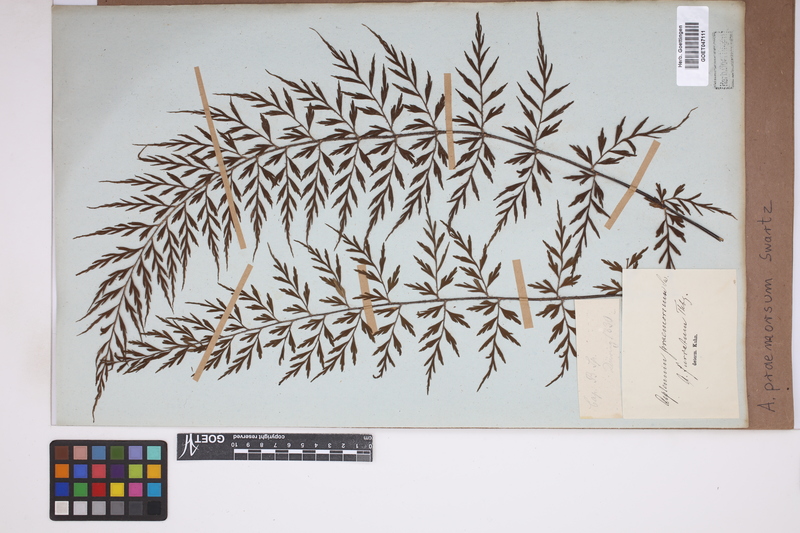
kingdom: Plantae
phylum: Tracheophyta
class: Polypodiopsida
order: Polypodiales
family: Aspleniaceae
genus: Asplenium
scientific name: Asplenium praemorsum
